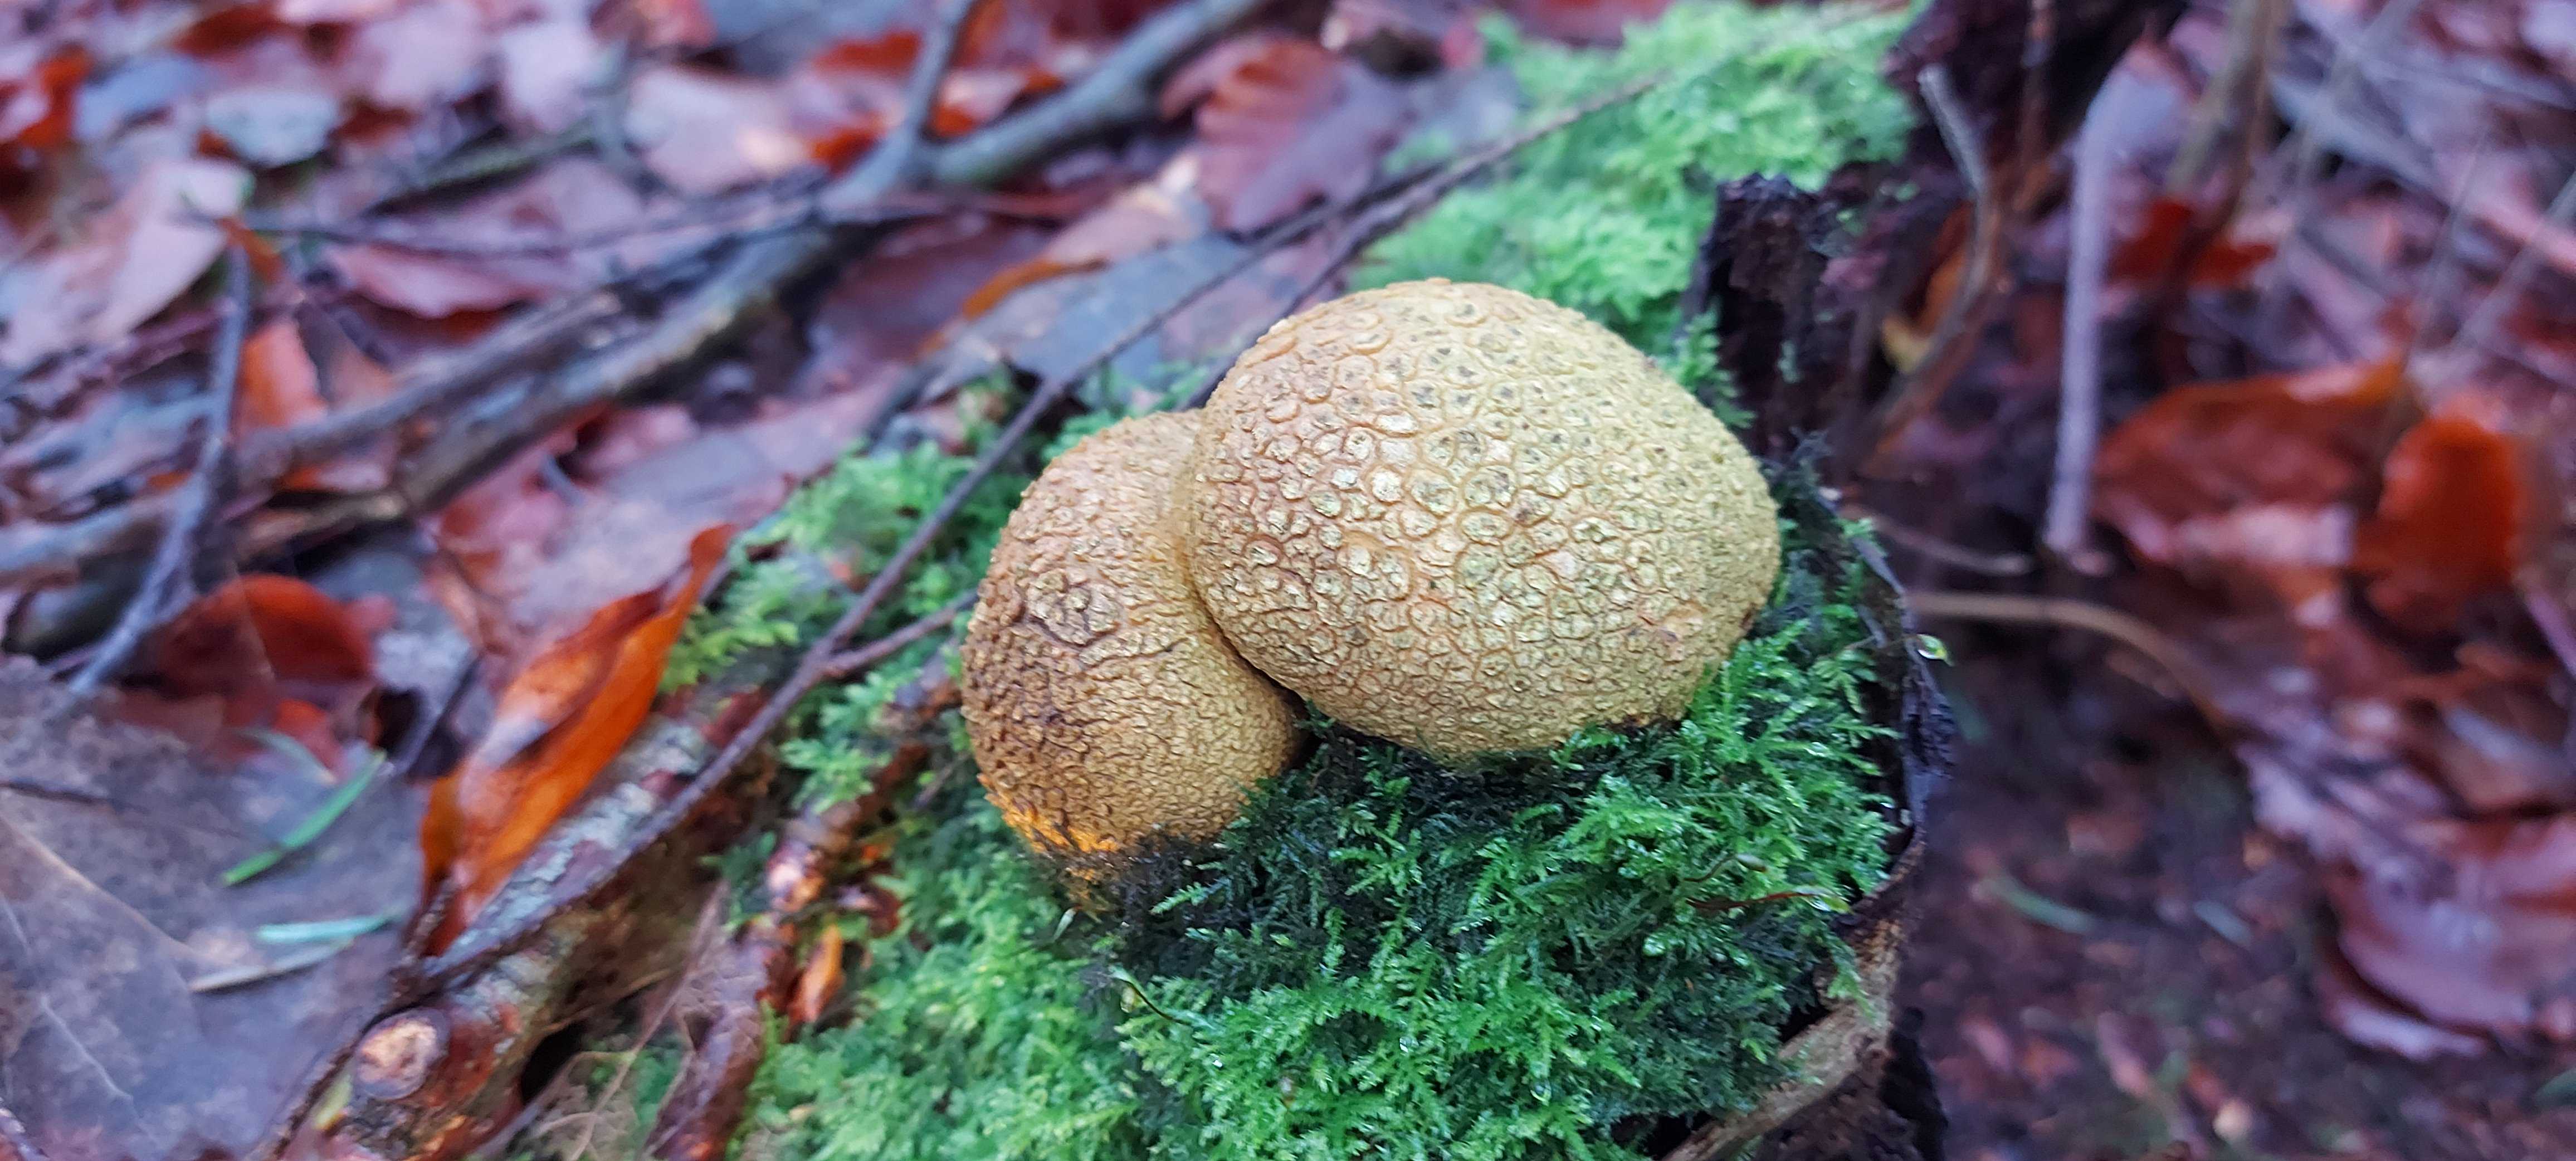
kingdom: Fungi
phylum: Basidiomycota
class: Agaricomycetes
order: Boletales
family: Sclerodermataceae
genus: Scleroderma
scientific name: Scleroderma citrinum
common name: almindelig bruskbold
